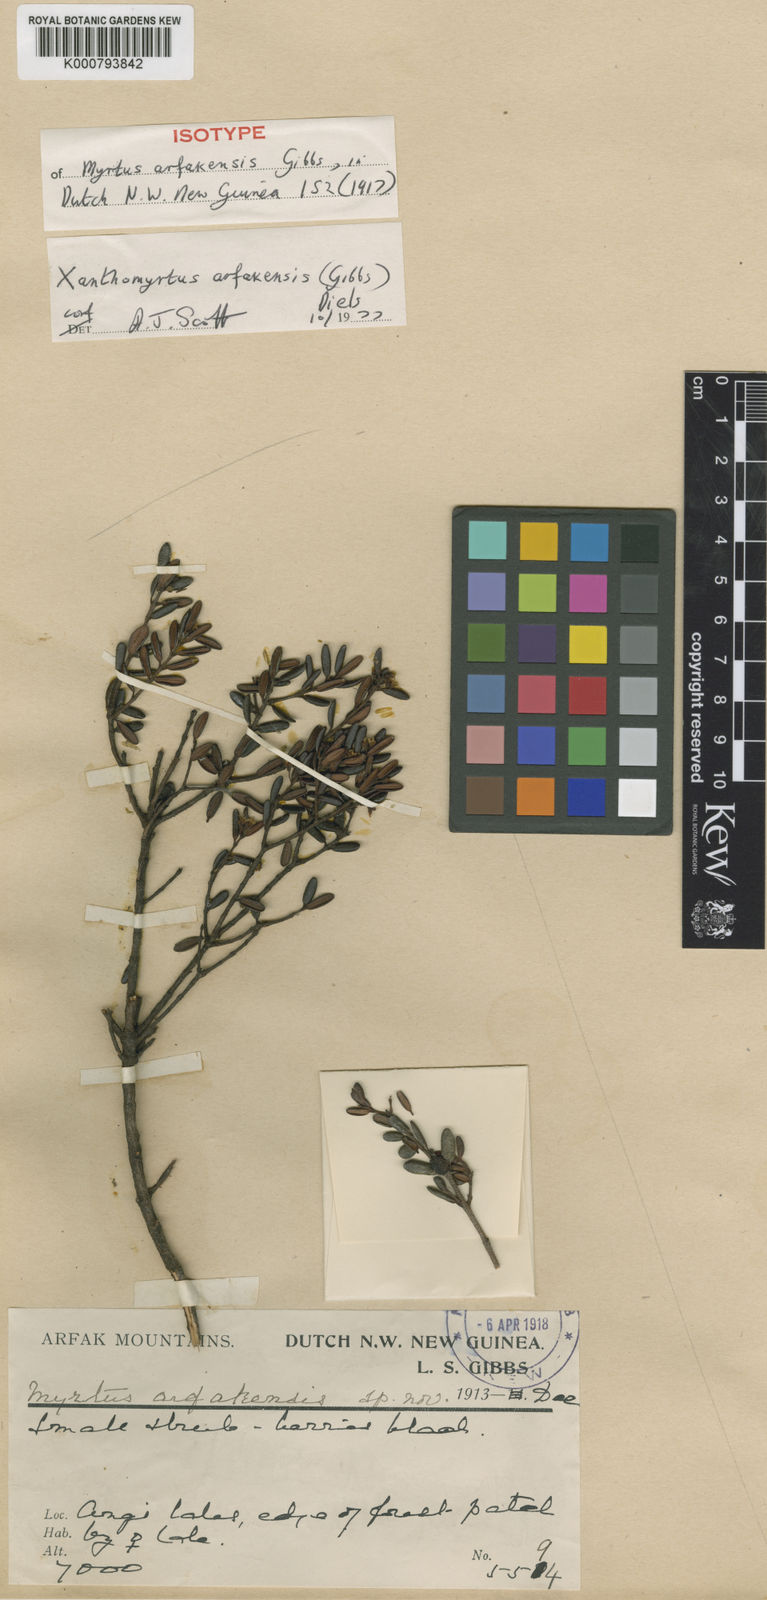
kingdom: Plantae
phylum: Tracheophyta
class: Magnoliopsida
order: Myrtales
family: Myrtaceae
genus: Xanthomyrtus
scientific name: Xanthomyrtus arfakensis
